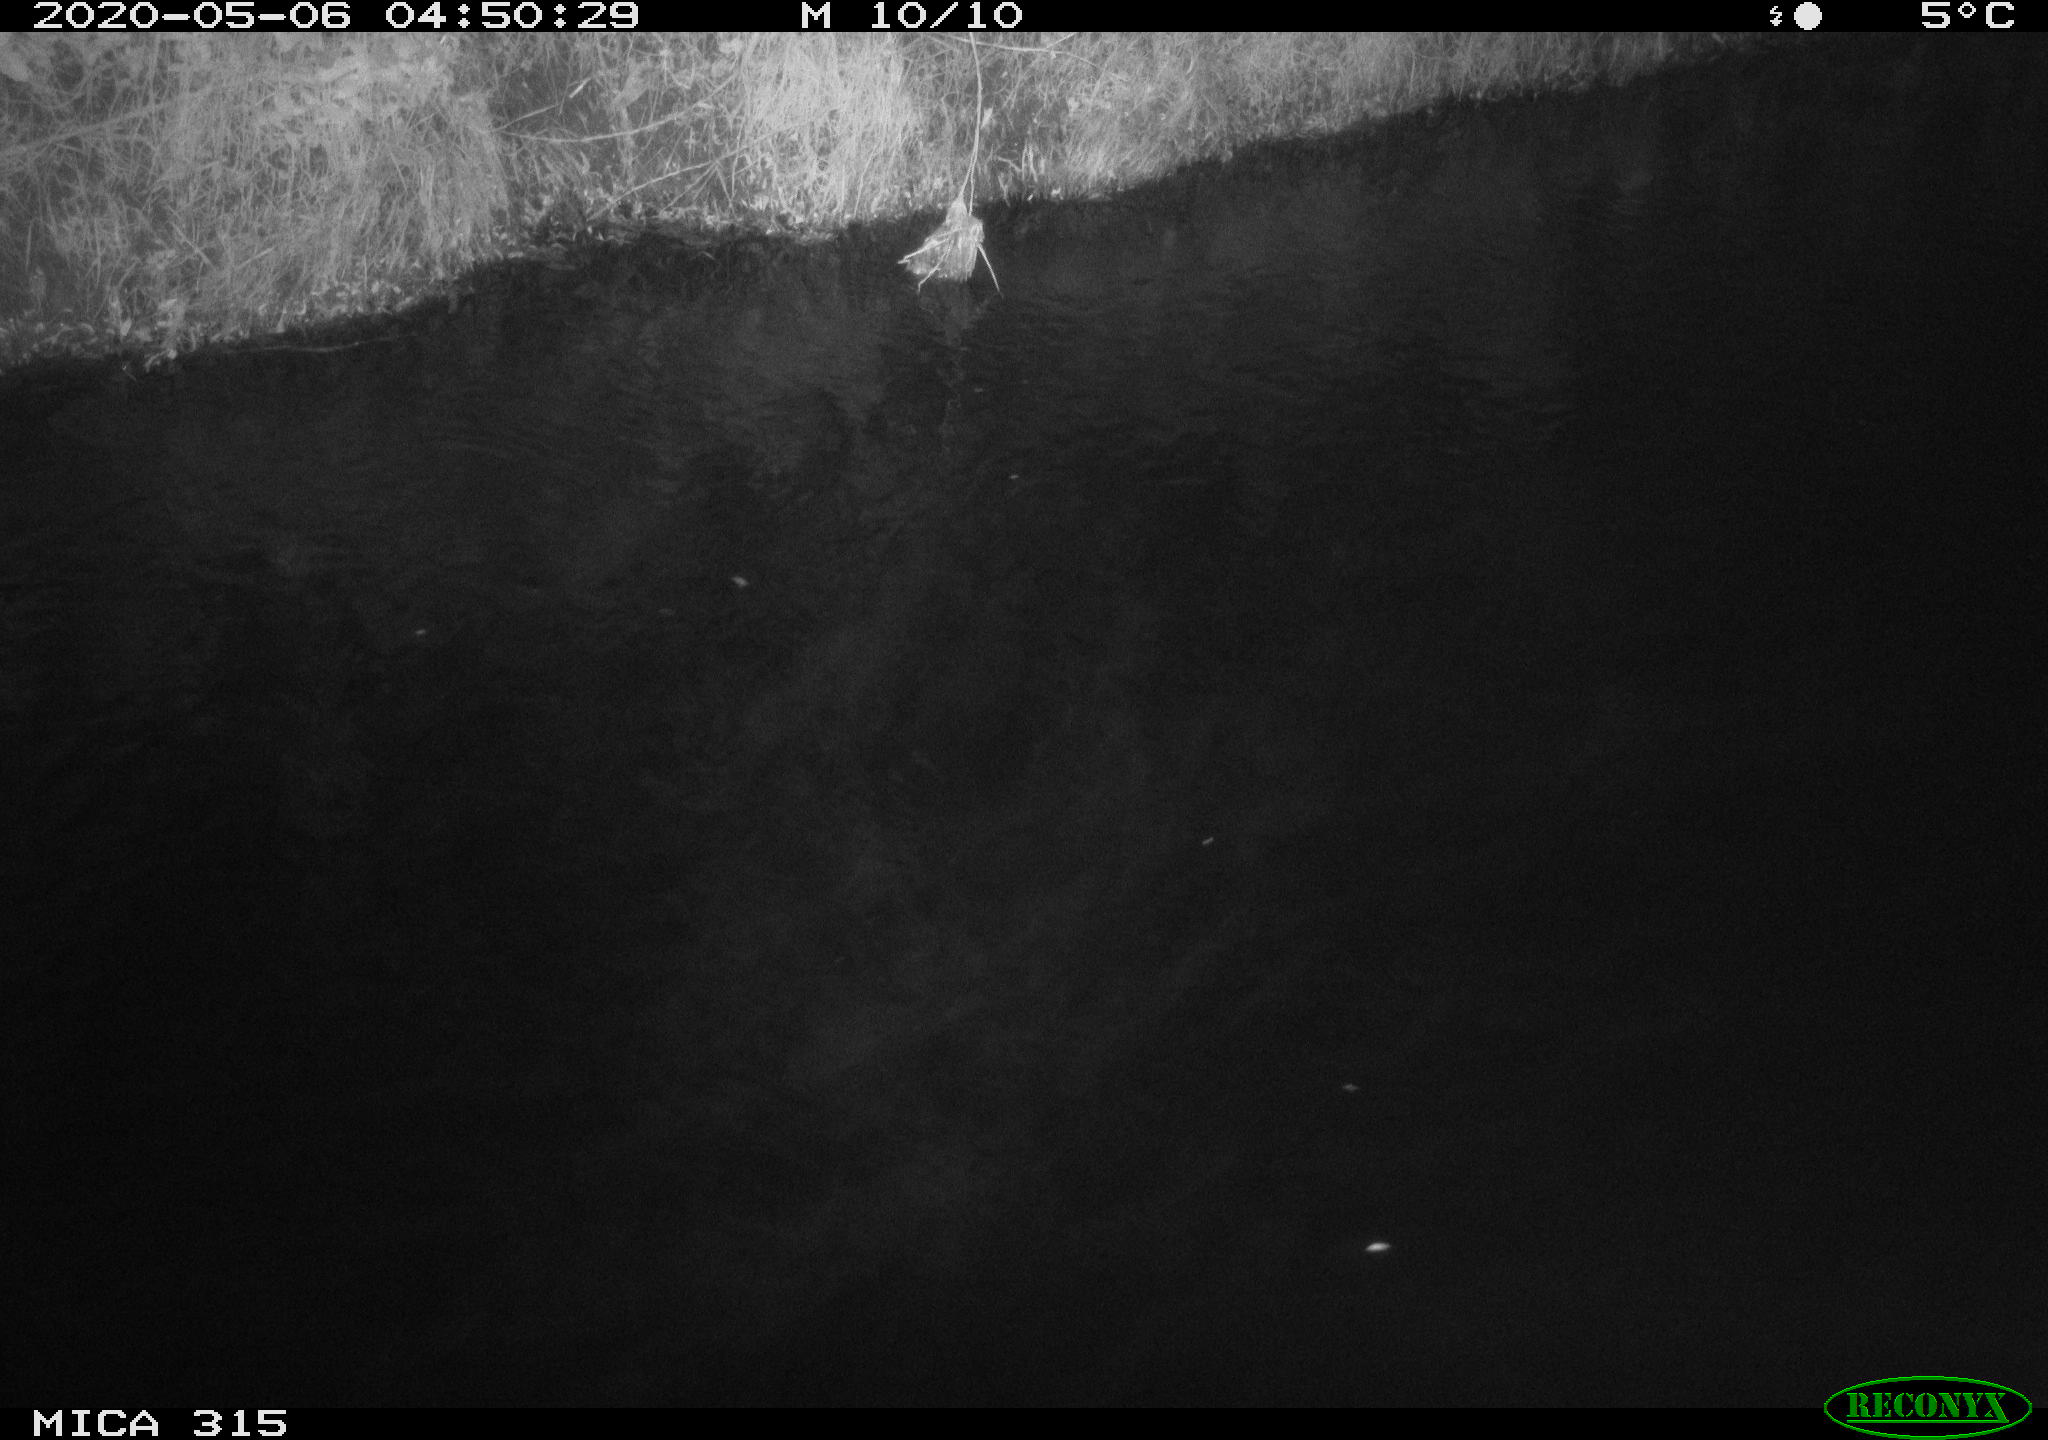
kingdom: Animalia
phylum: Chordata
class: Aves
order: Anseriformes
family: Anatidae
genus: Anas
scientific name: Anas platyrhynchos
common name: Mallard
